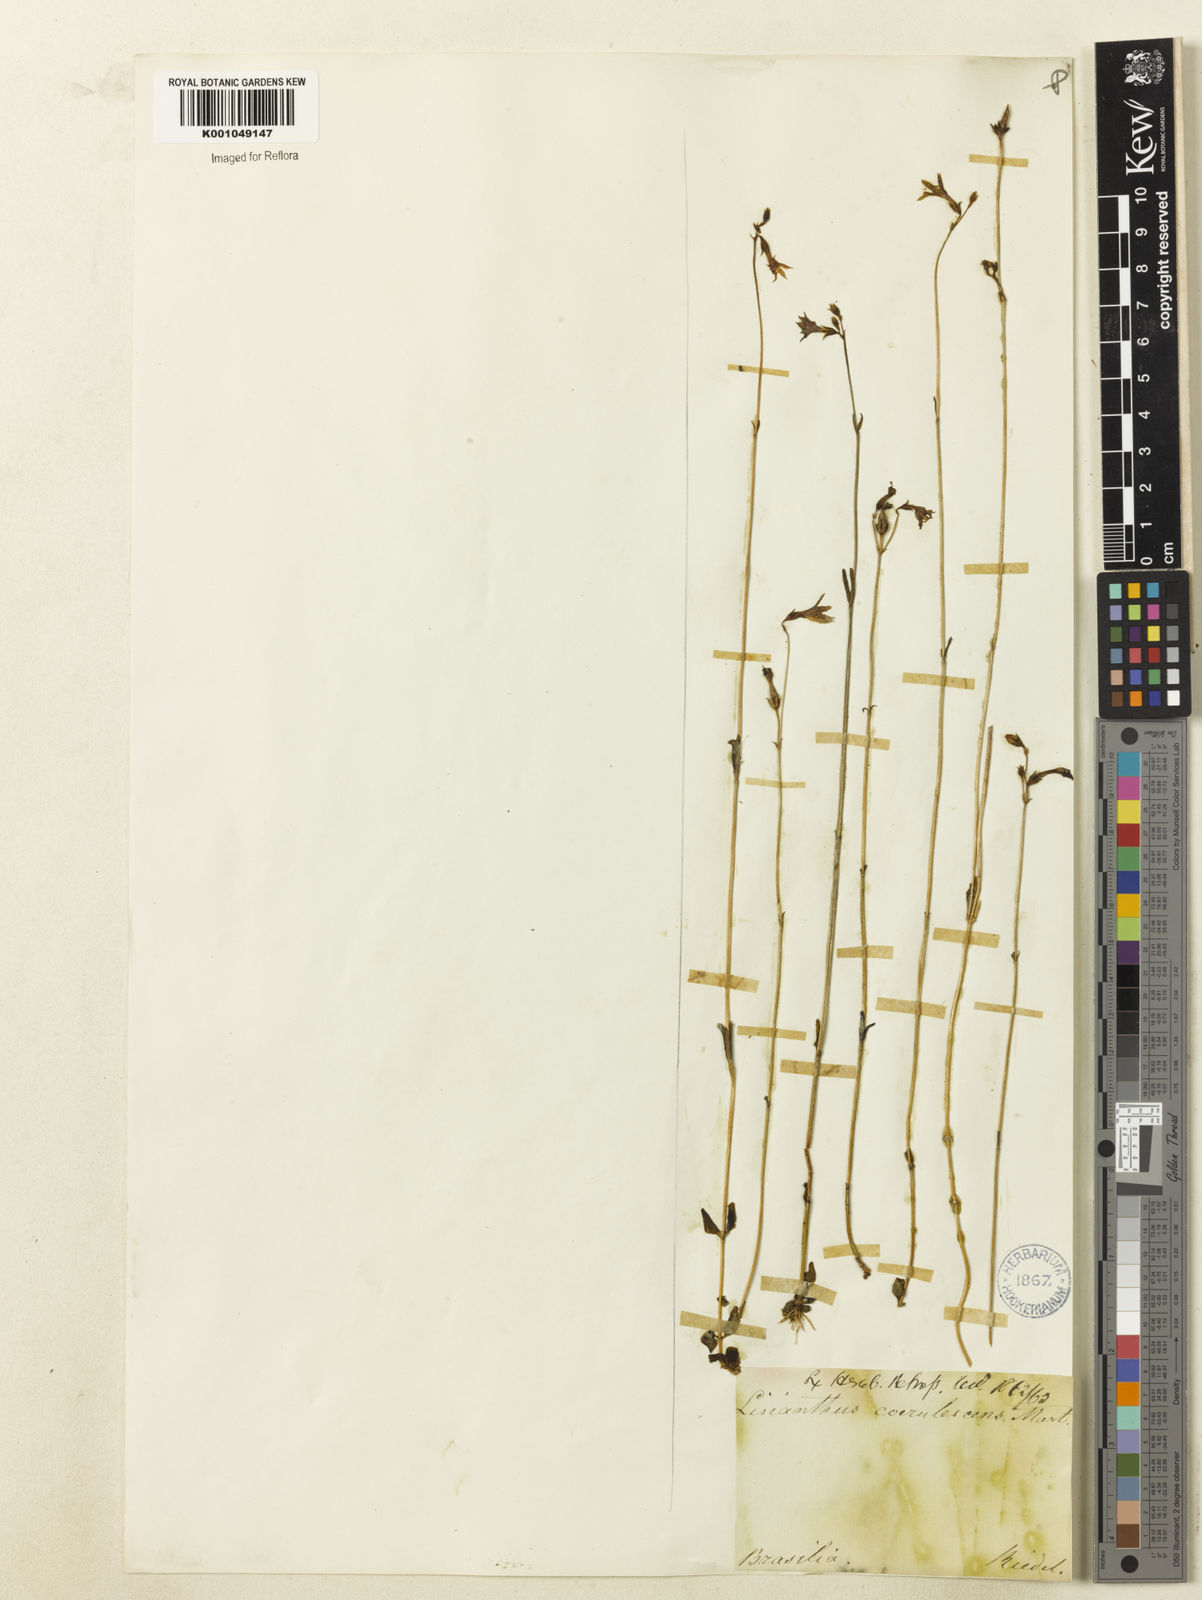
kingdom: Plantae
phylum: Tracheophyta
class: Magnoliopsida
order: Gentianales
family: Gentianaceae
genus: Tetrapollinia
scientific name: Tetrapollinia caerulescens
